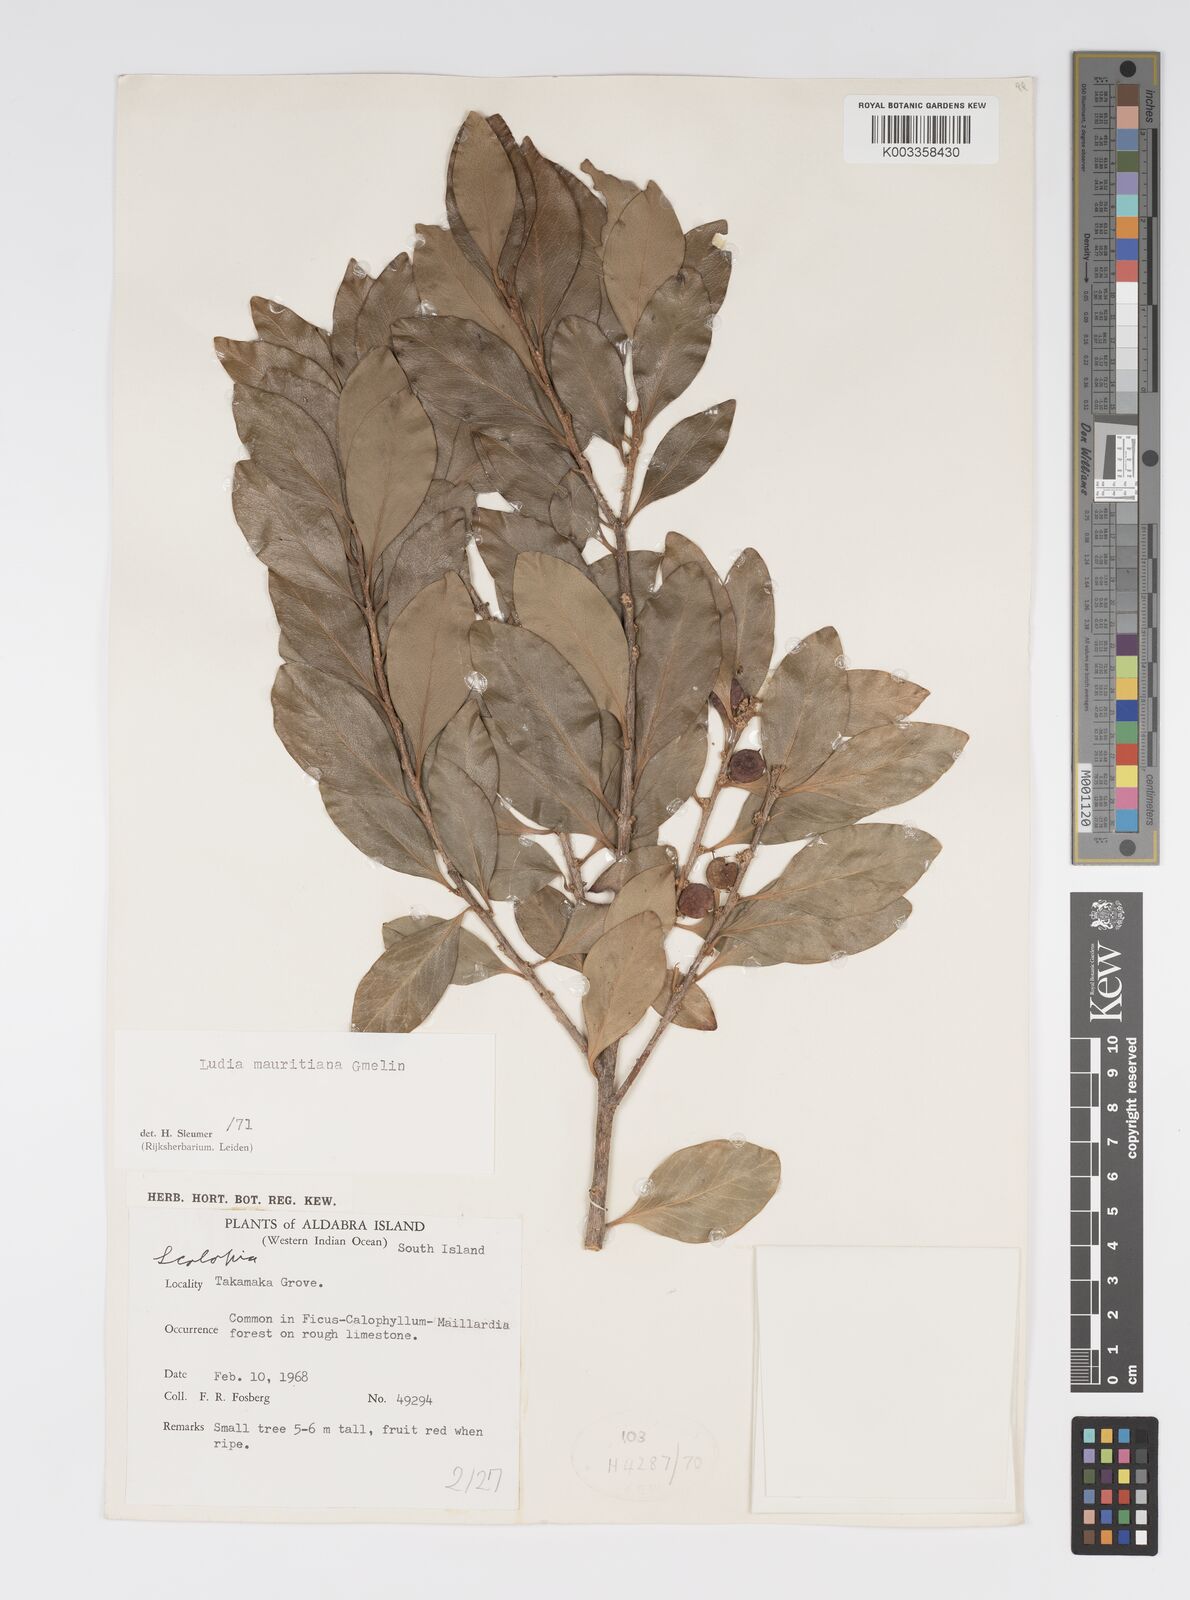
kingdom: Plantae
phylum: Tracheophyta
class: Magnoliopsida
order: Malpighiales
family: Salicaceae
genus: Ludia
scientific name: Ludia mauritiana
